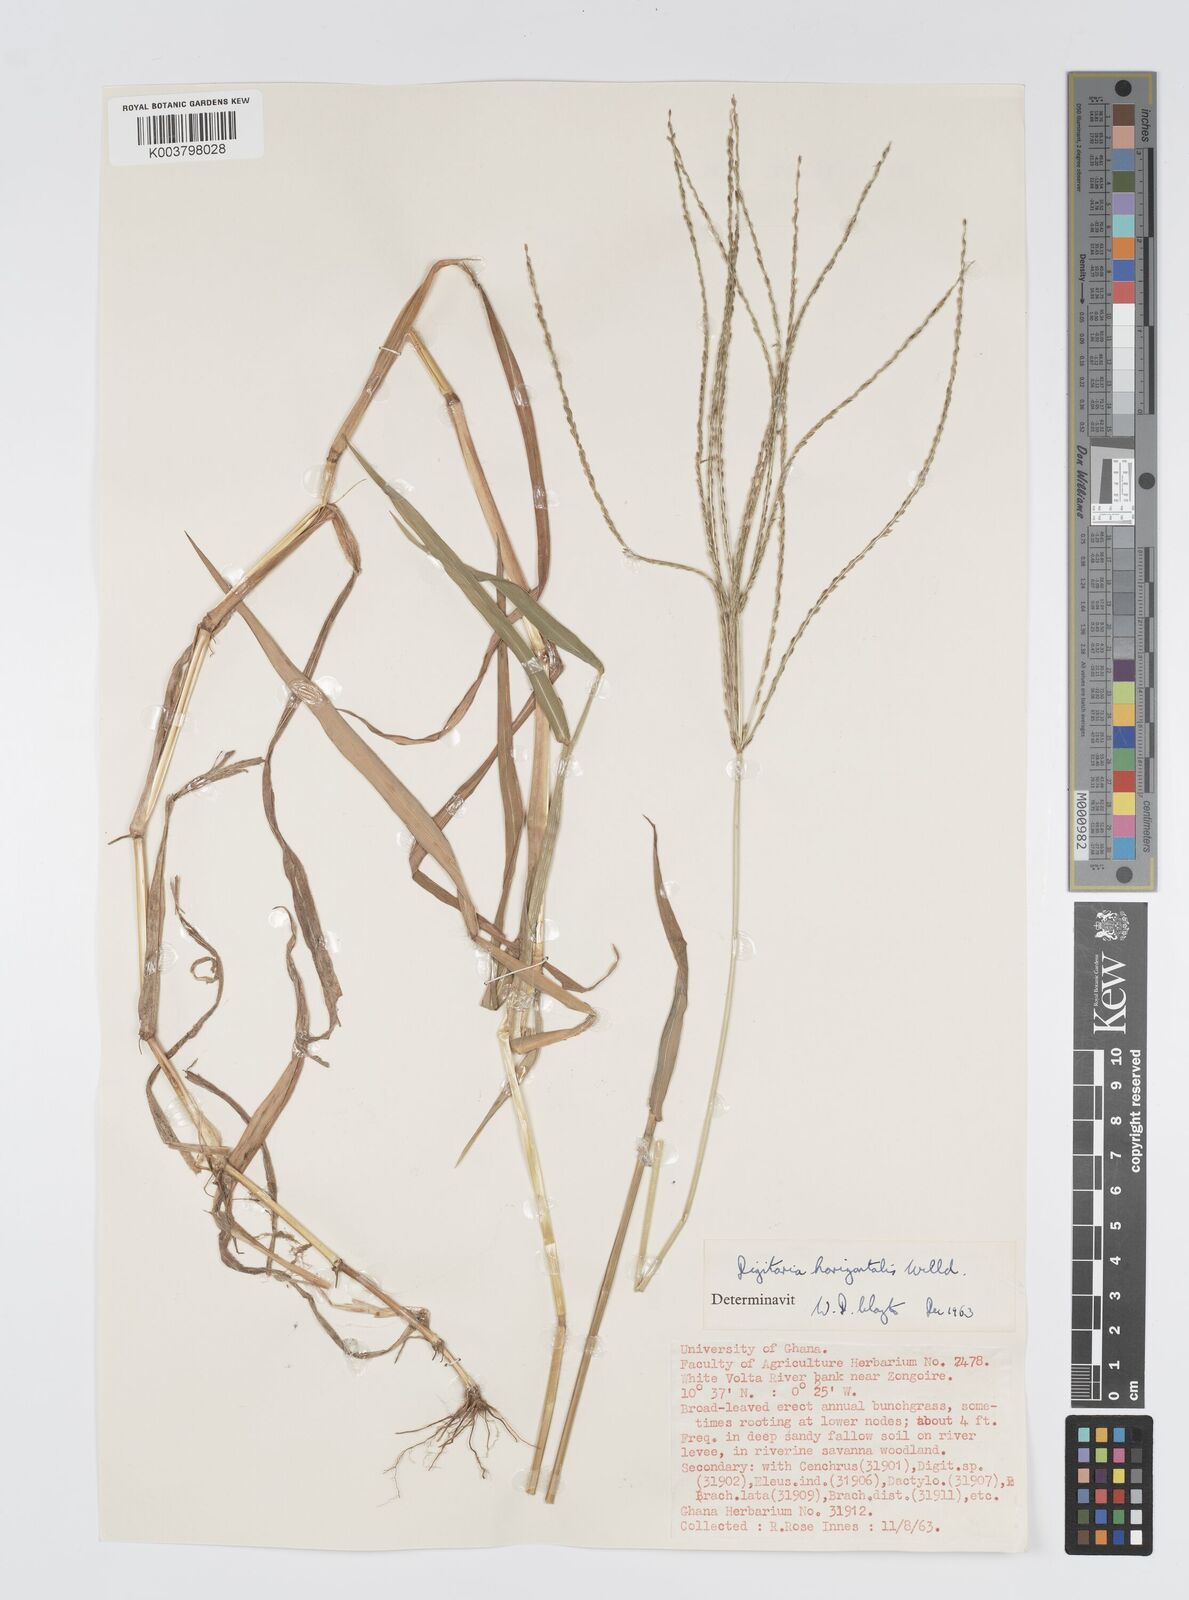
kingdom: Plantae
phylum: Tracheophyta
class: Liliopsida
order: Poales
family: Poaceae
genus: Digitaria
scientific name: Digitaria horizontalis
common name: Jamaican crabgrass
